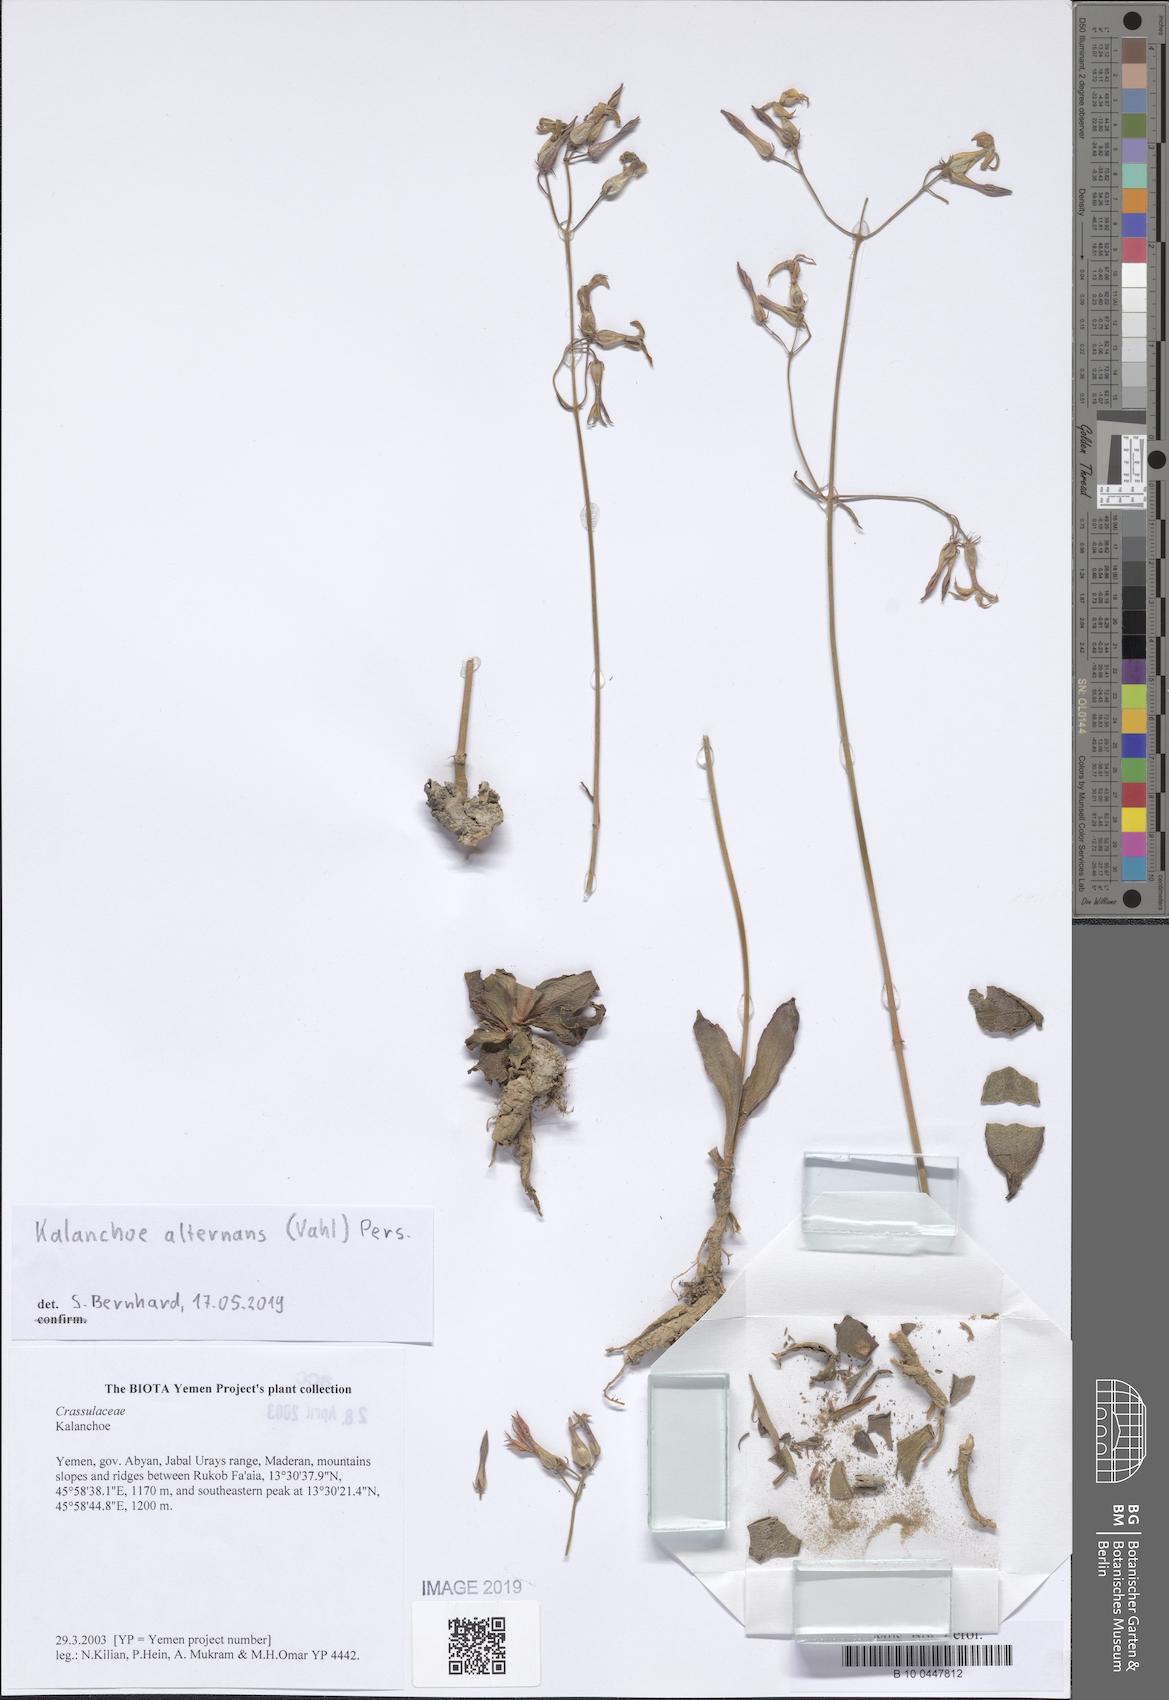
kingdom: Plantae
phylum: Tracheophyta
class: Magnoliopsida
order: Saxifragales
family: Crassulaceae
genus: Kalanchoe
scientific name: Kalanchoe alternans
